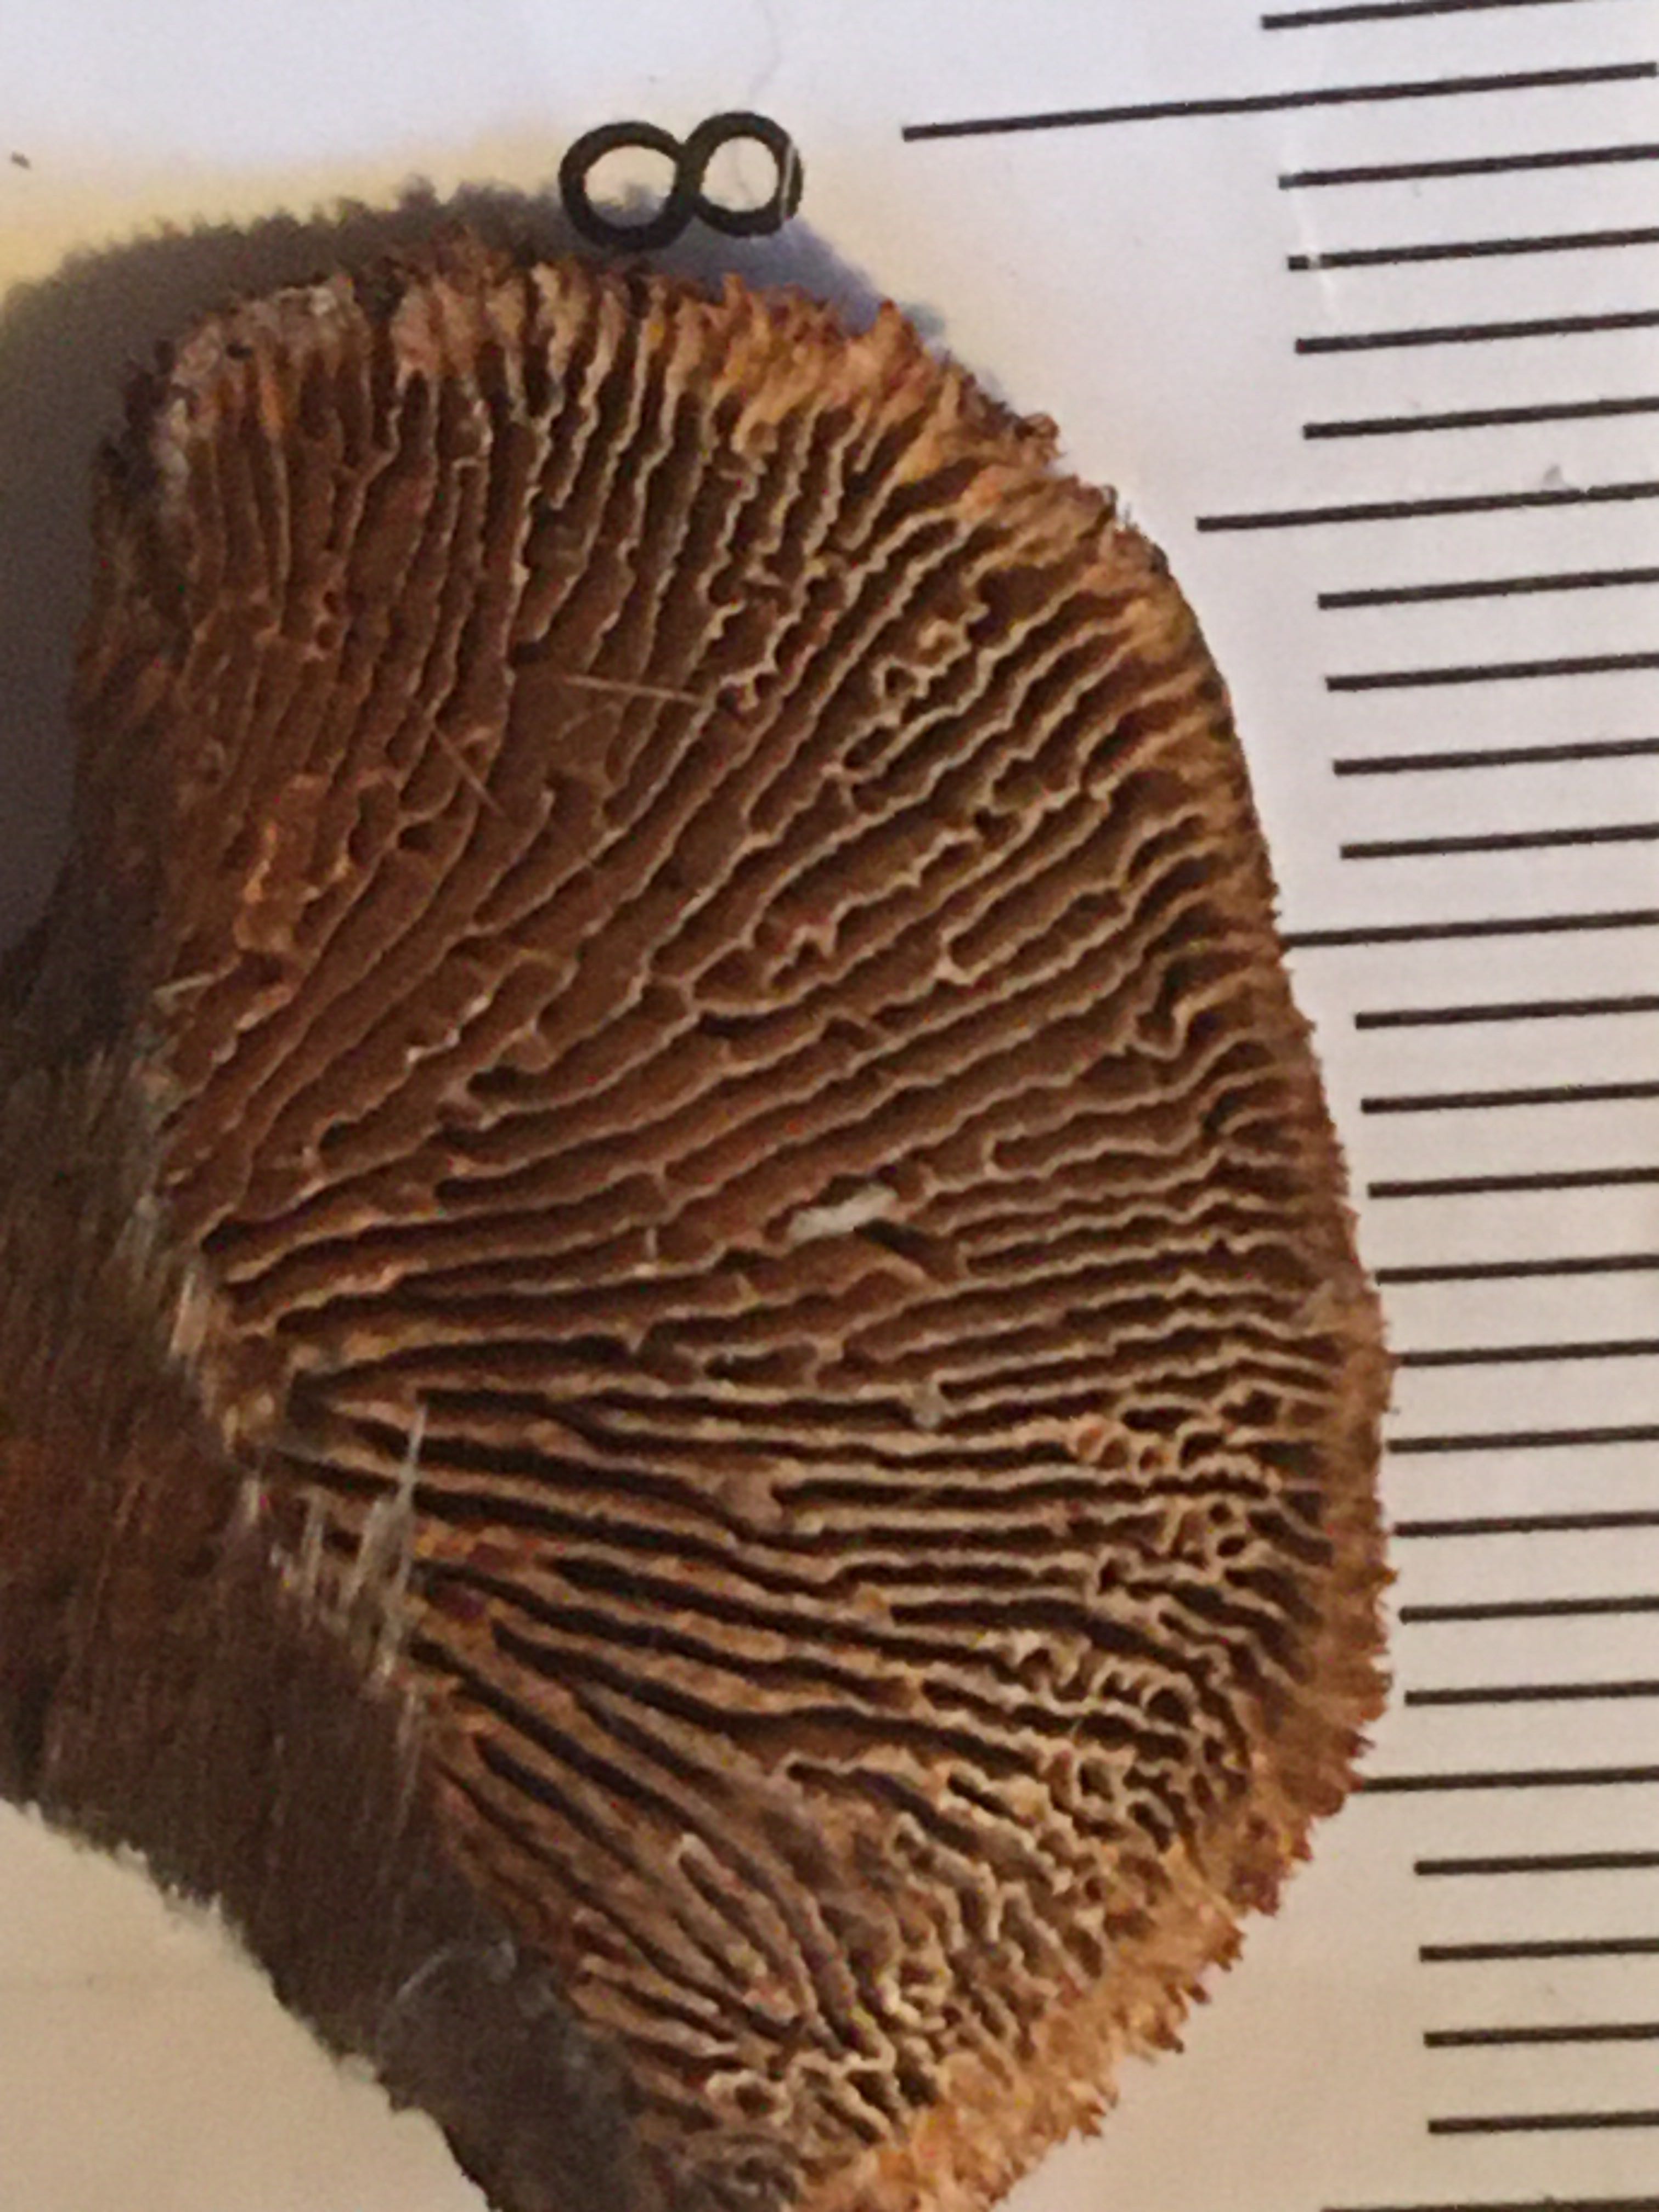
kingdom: Fungi
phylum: Basidiomycota
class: Agaricomycetes
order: Gloeophyllales
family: Gloeophyllaceae
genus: Gloeophyllum
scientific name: Gloeophyllum sepiarium
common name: fyrre-korkhat
